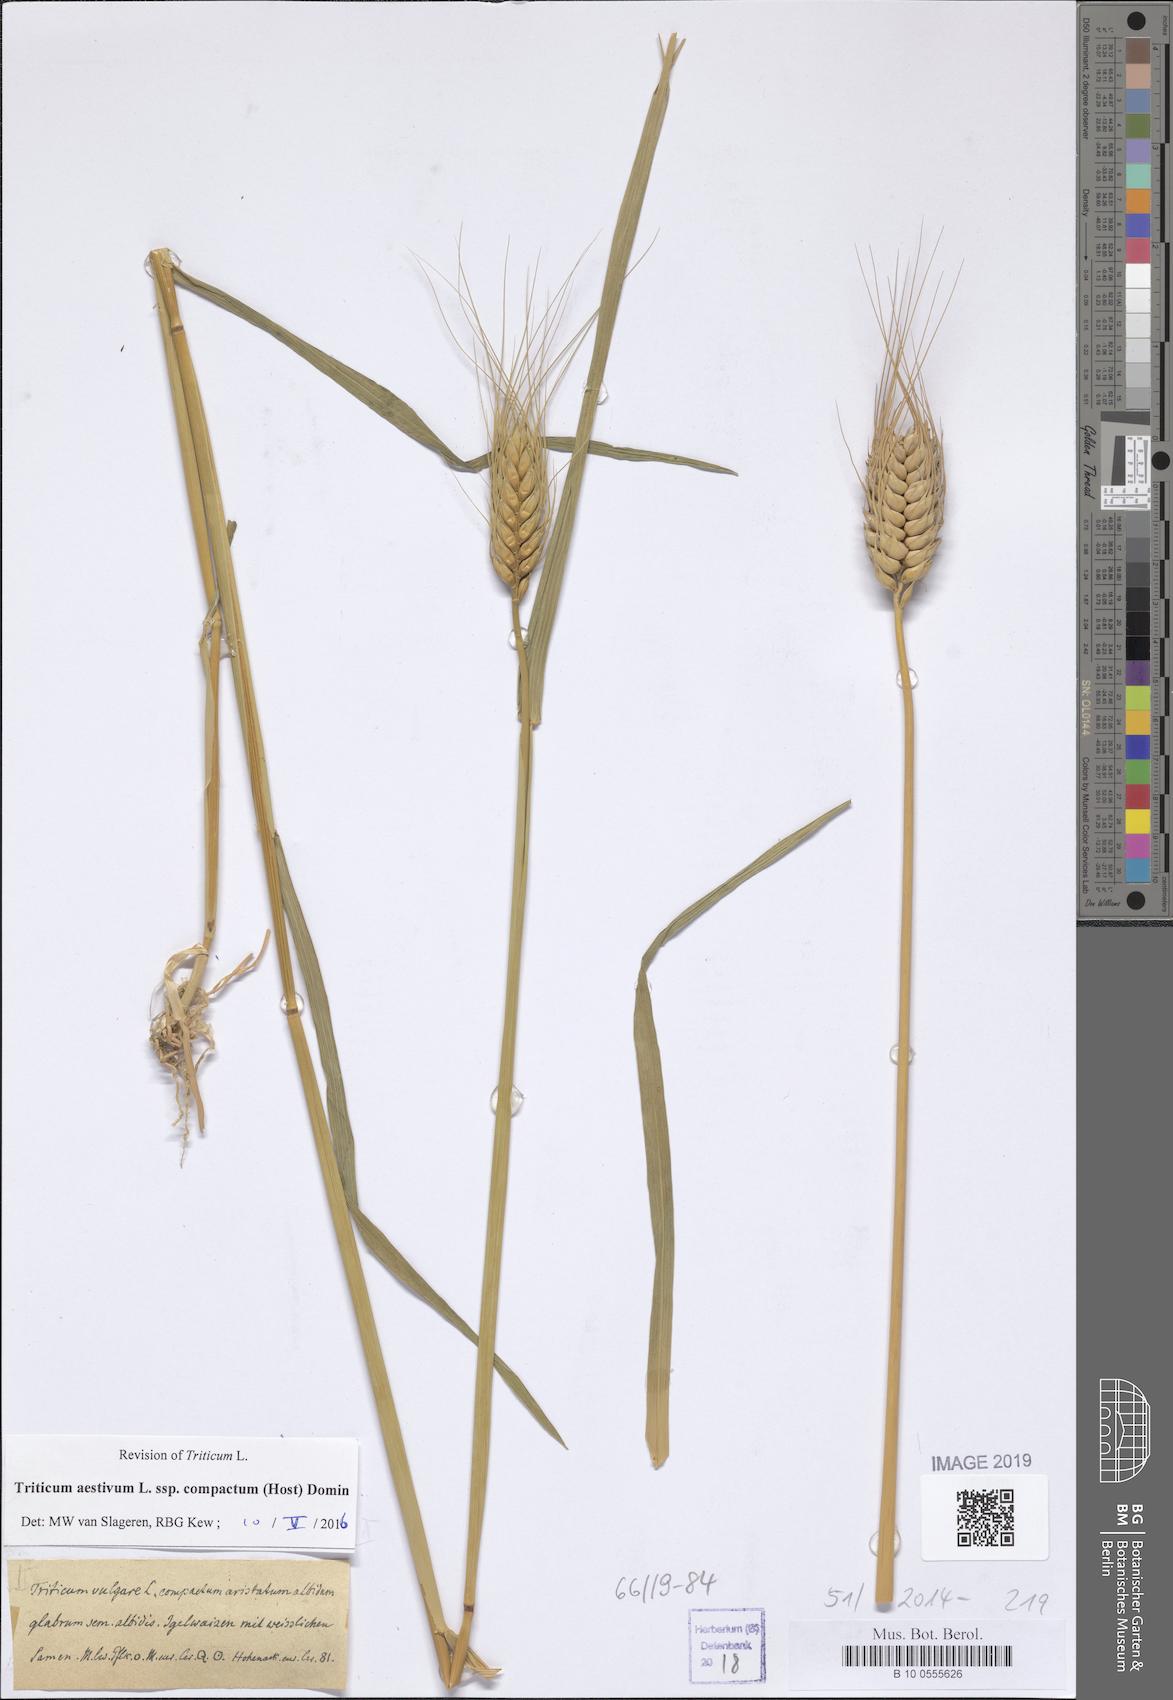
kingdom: Plantae
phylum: Tracheophyta
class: Liliopsida
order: Poales
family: Poaceae
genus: Triticum
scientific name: Triticum aestivum
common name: Common wheat
